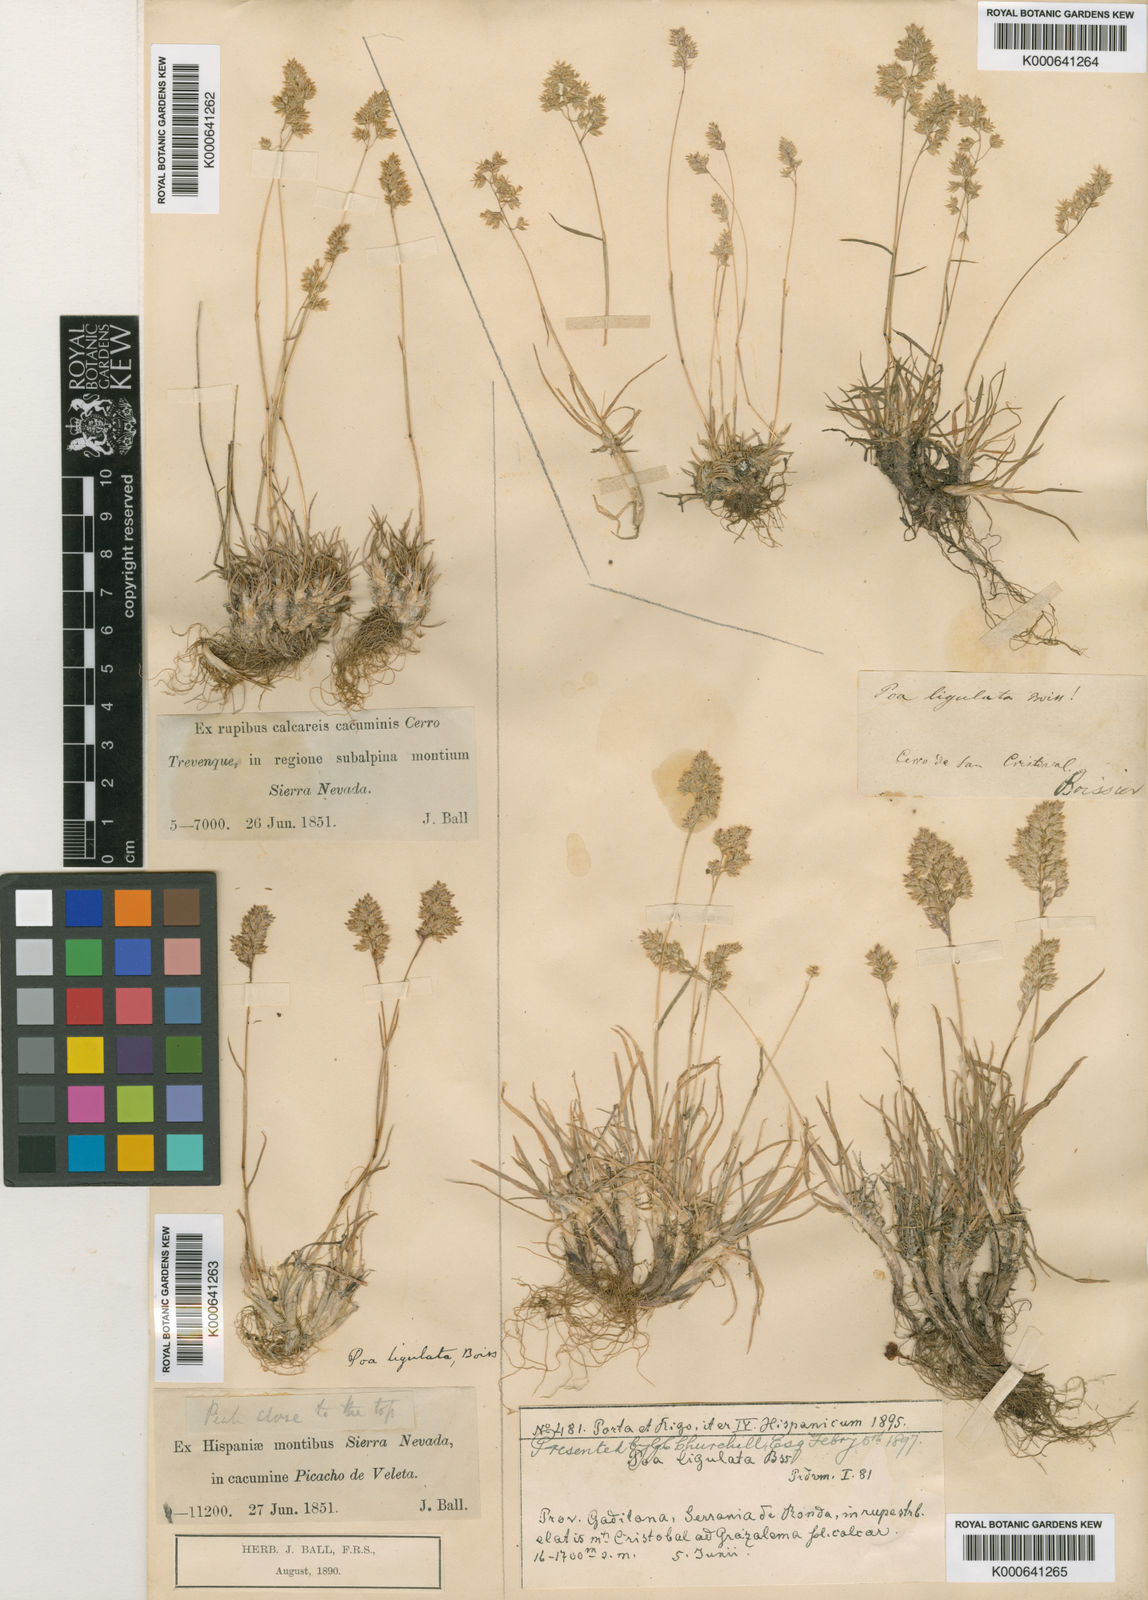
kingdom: Plantae
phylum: Tracheophyta
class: Liliopsida
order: Poales
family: Poaceae
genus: Poa
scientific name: Poa ligulata
